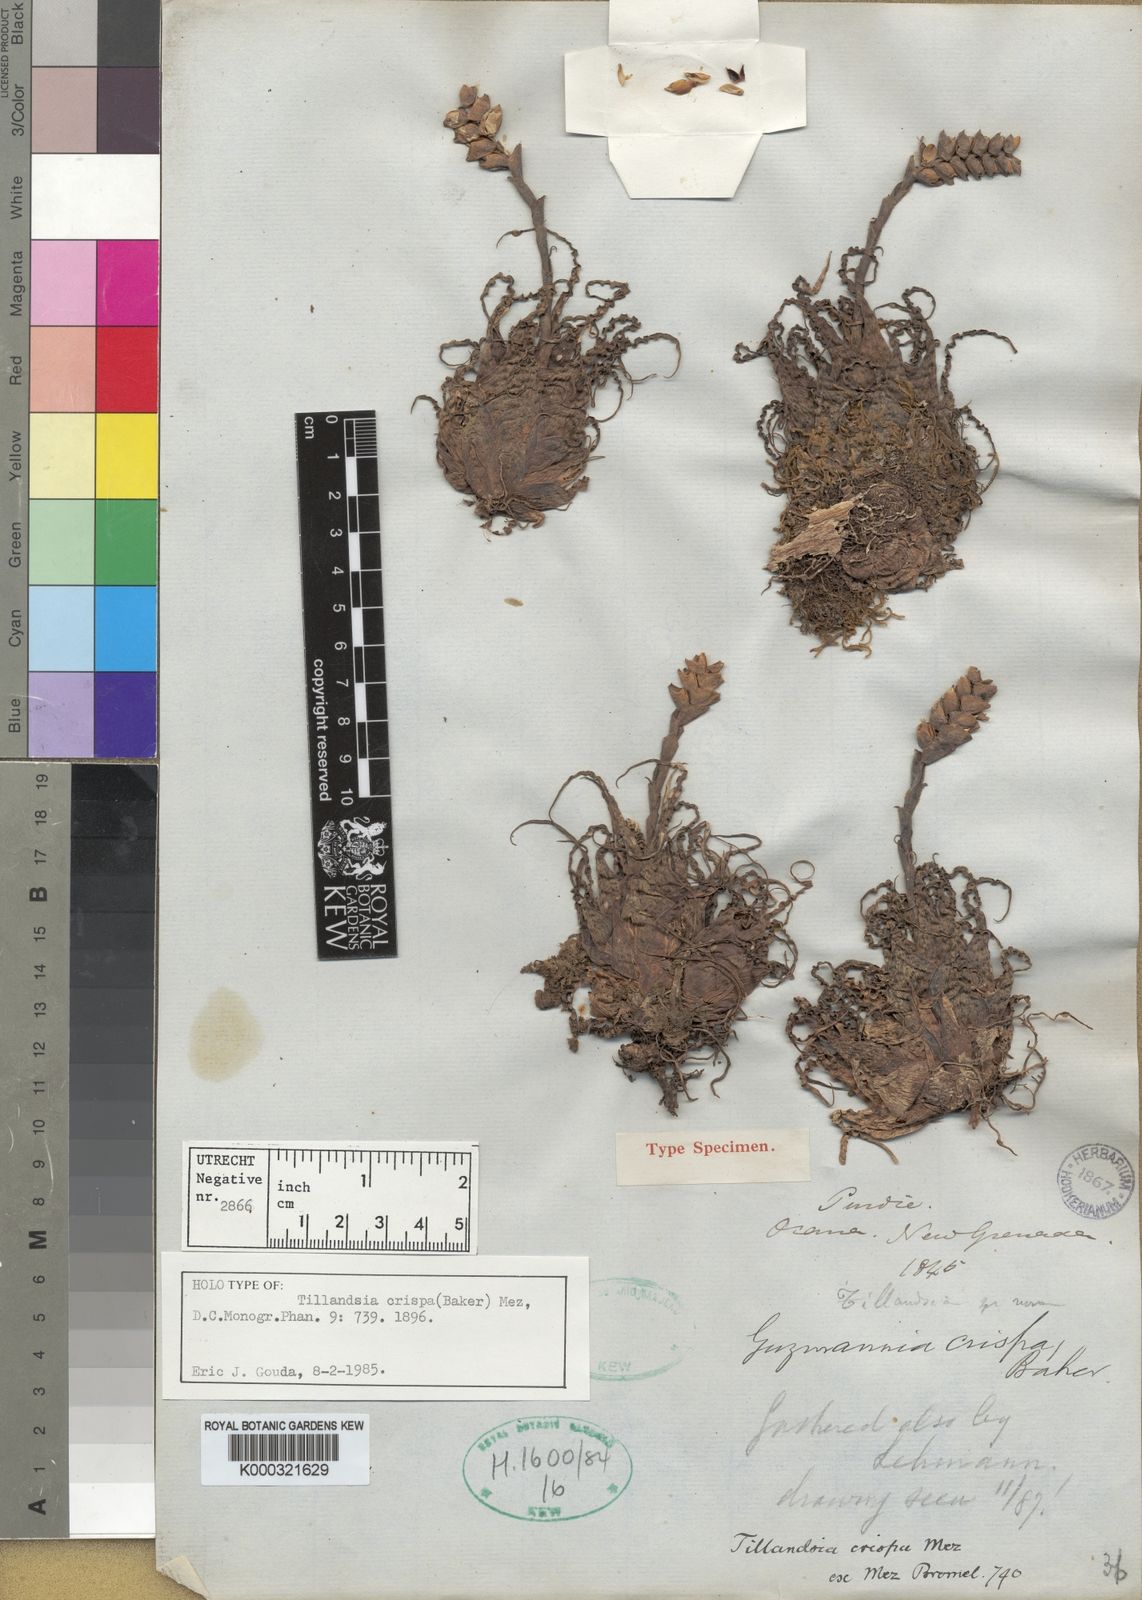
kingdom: Plantae
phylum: Tracheophyta
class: Liliopsida
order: Poales
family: Bromeliaceae
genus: Racinaea
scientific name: Racinaea crispa
